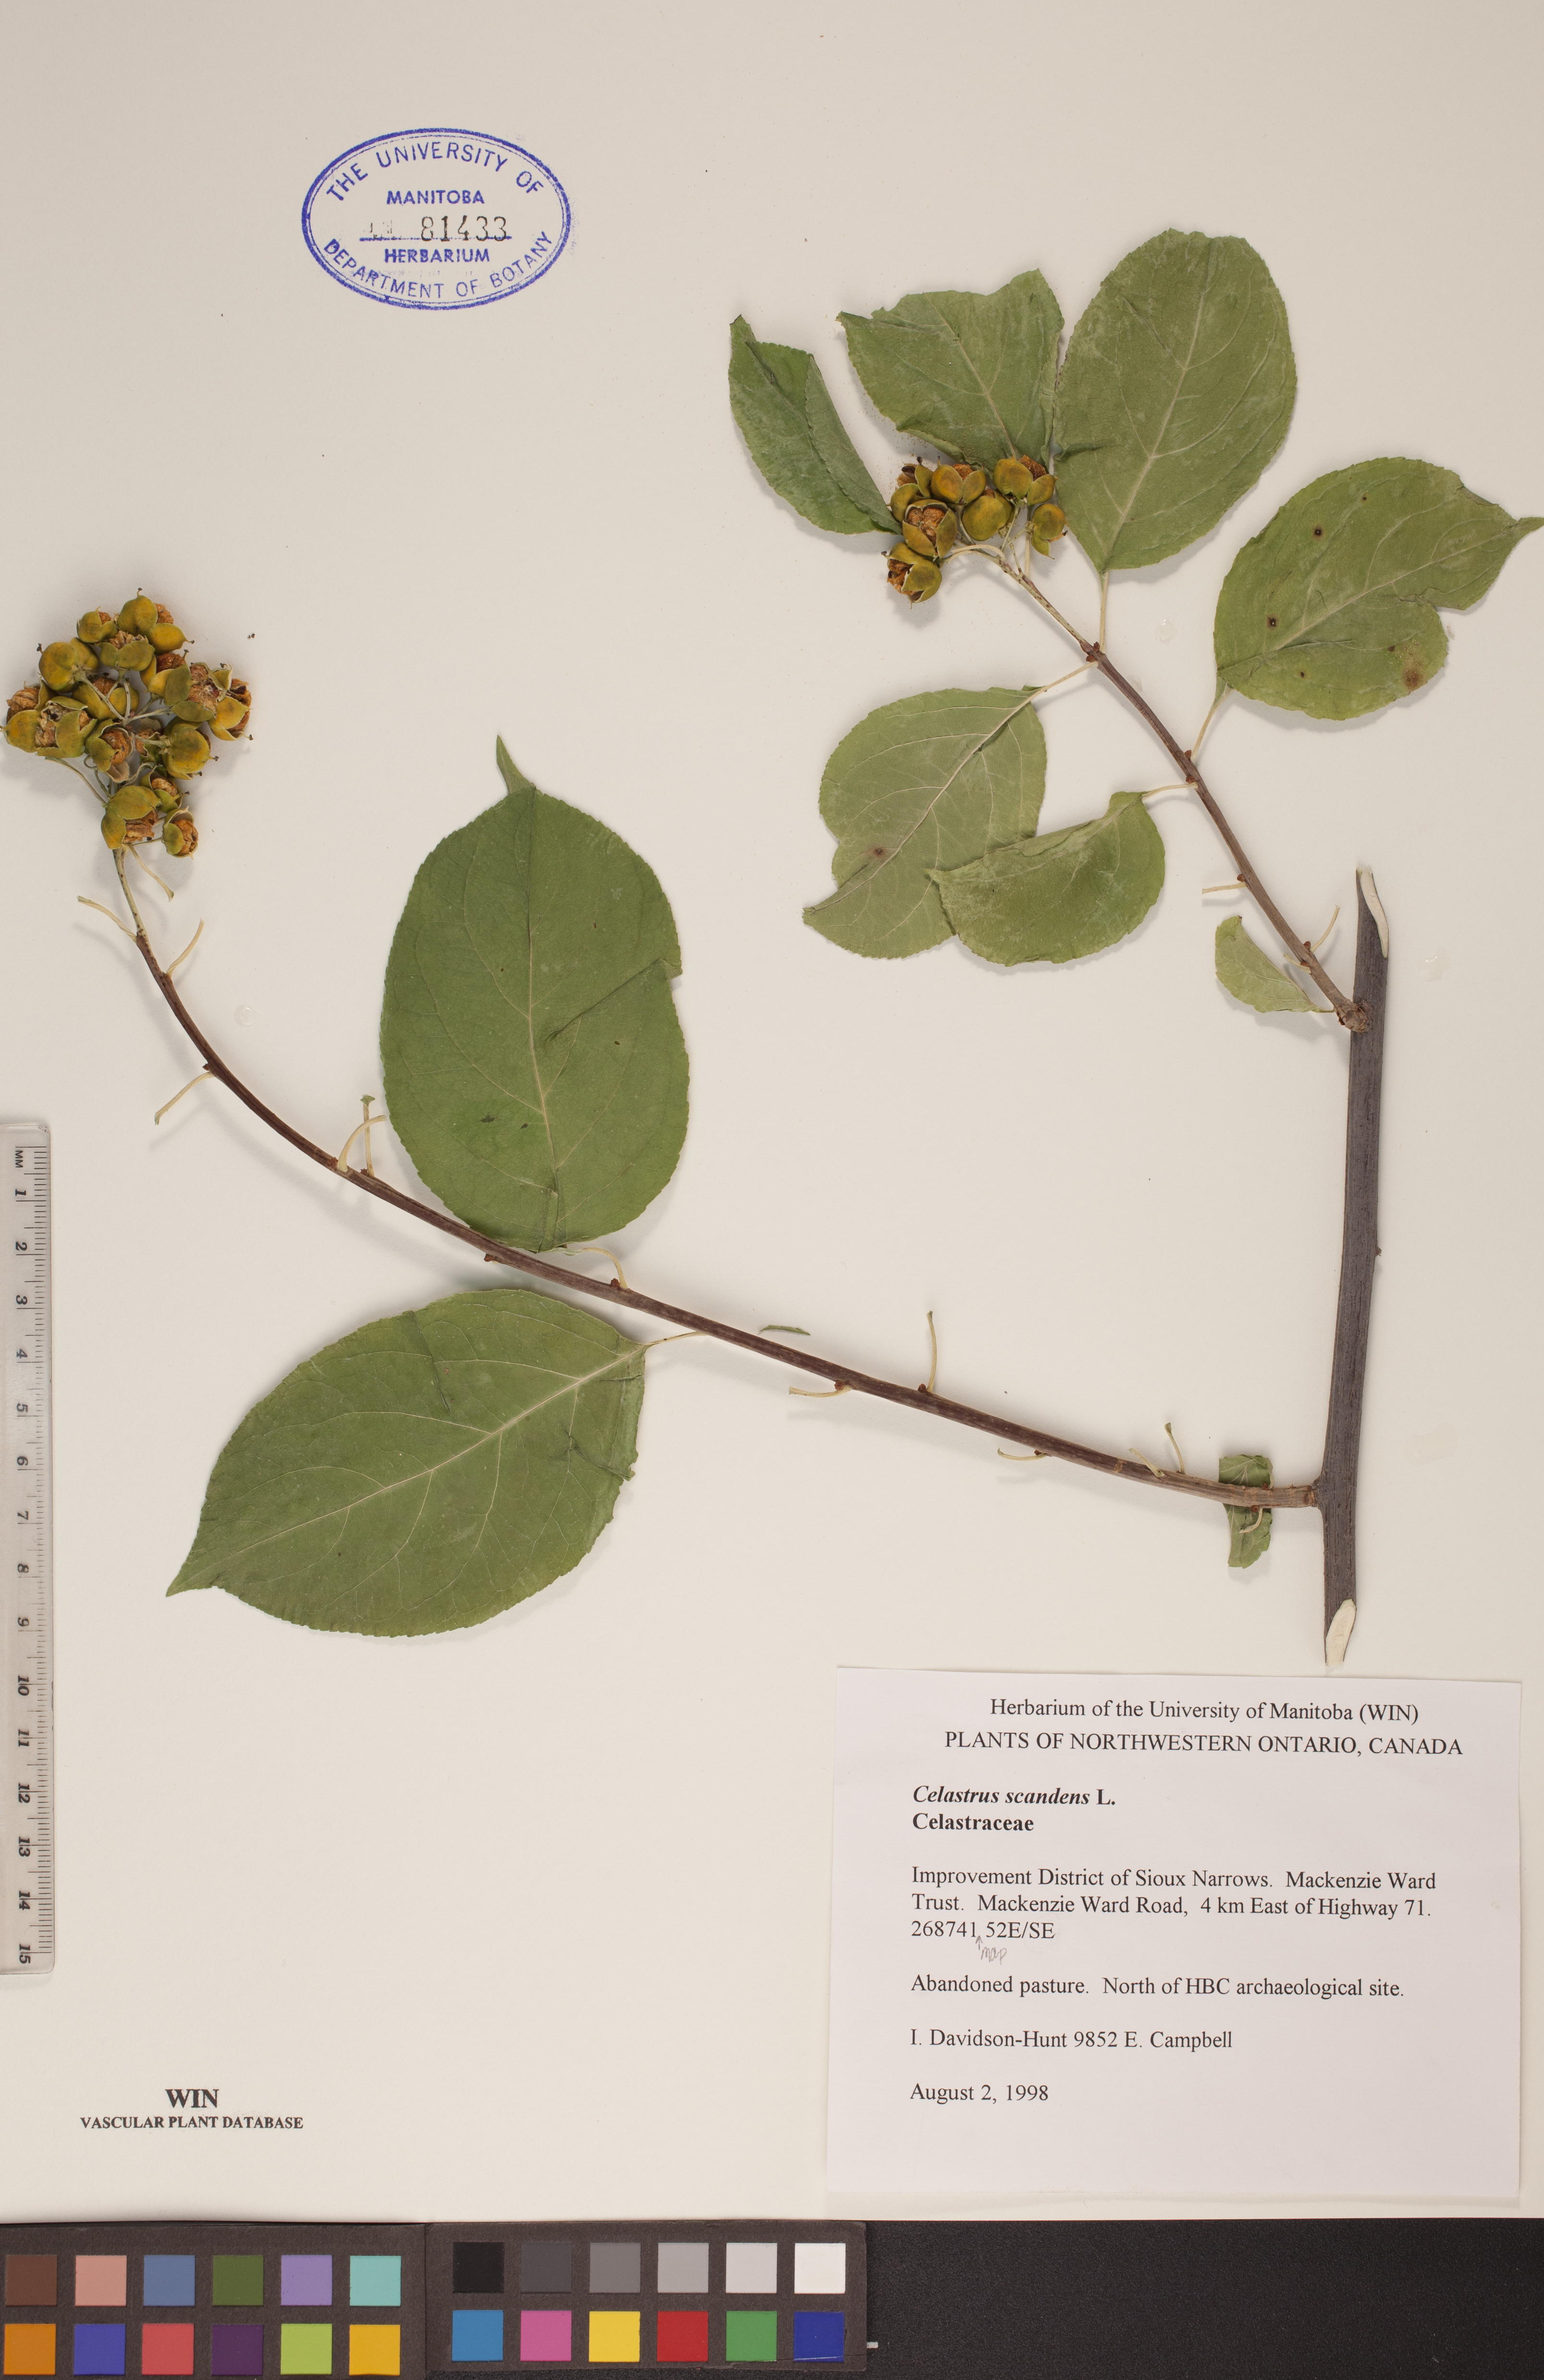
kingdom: Plantae
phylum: Tracheophyta
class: Magnoliopsida
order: Celastrales
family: Celastraceae
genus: Celastrus
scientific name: Celastrus scandens
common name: American bittersweet
